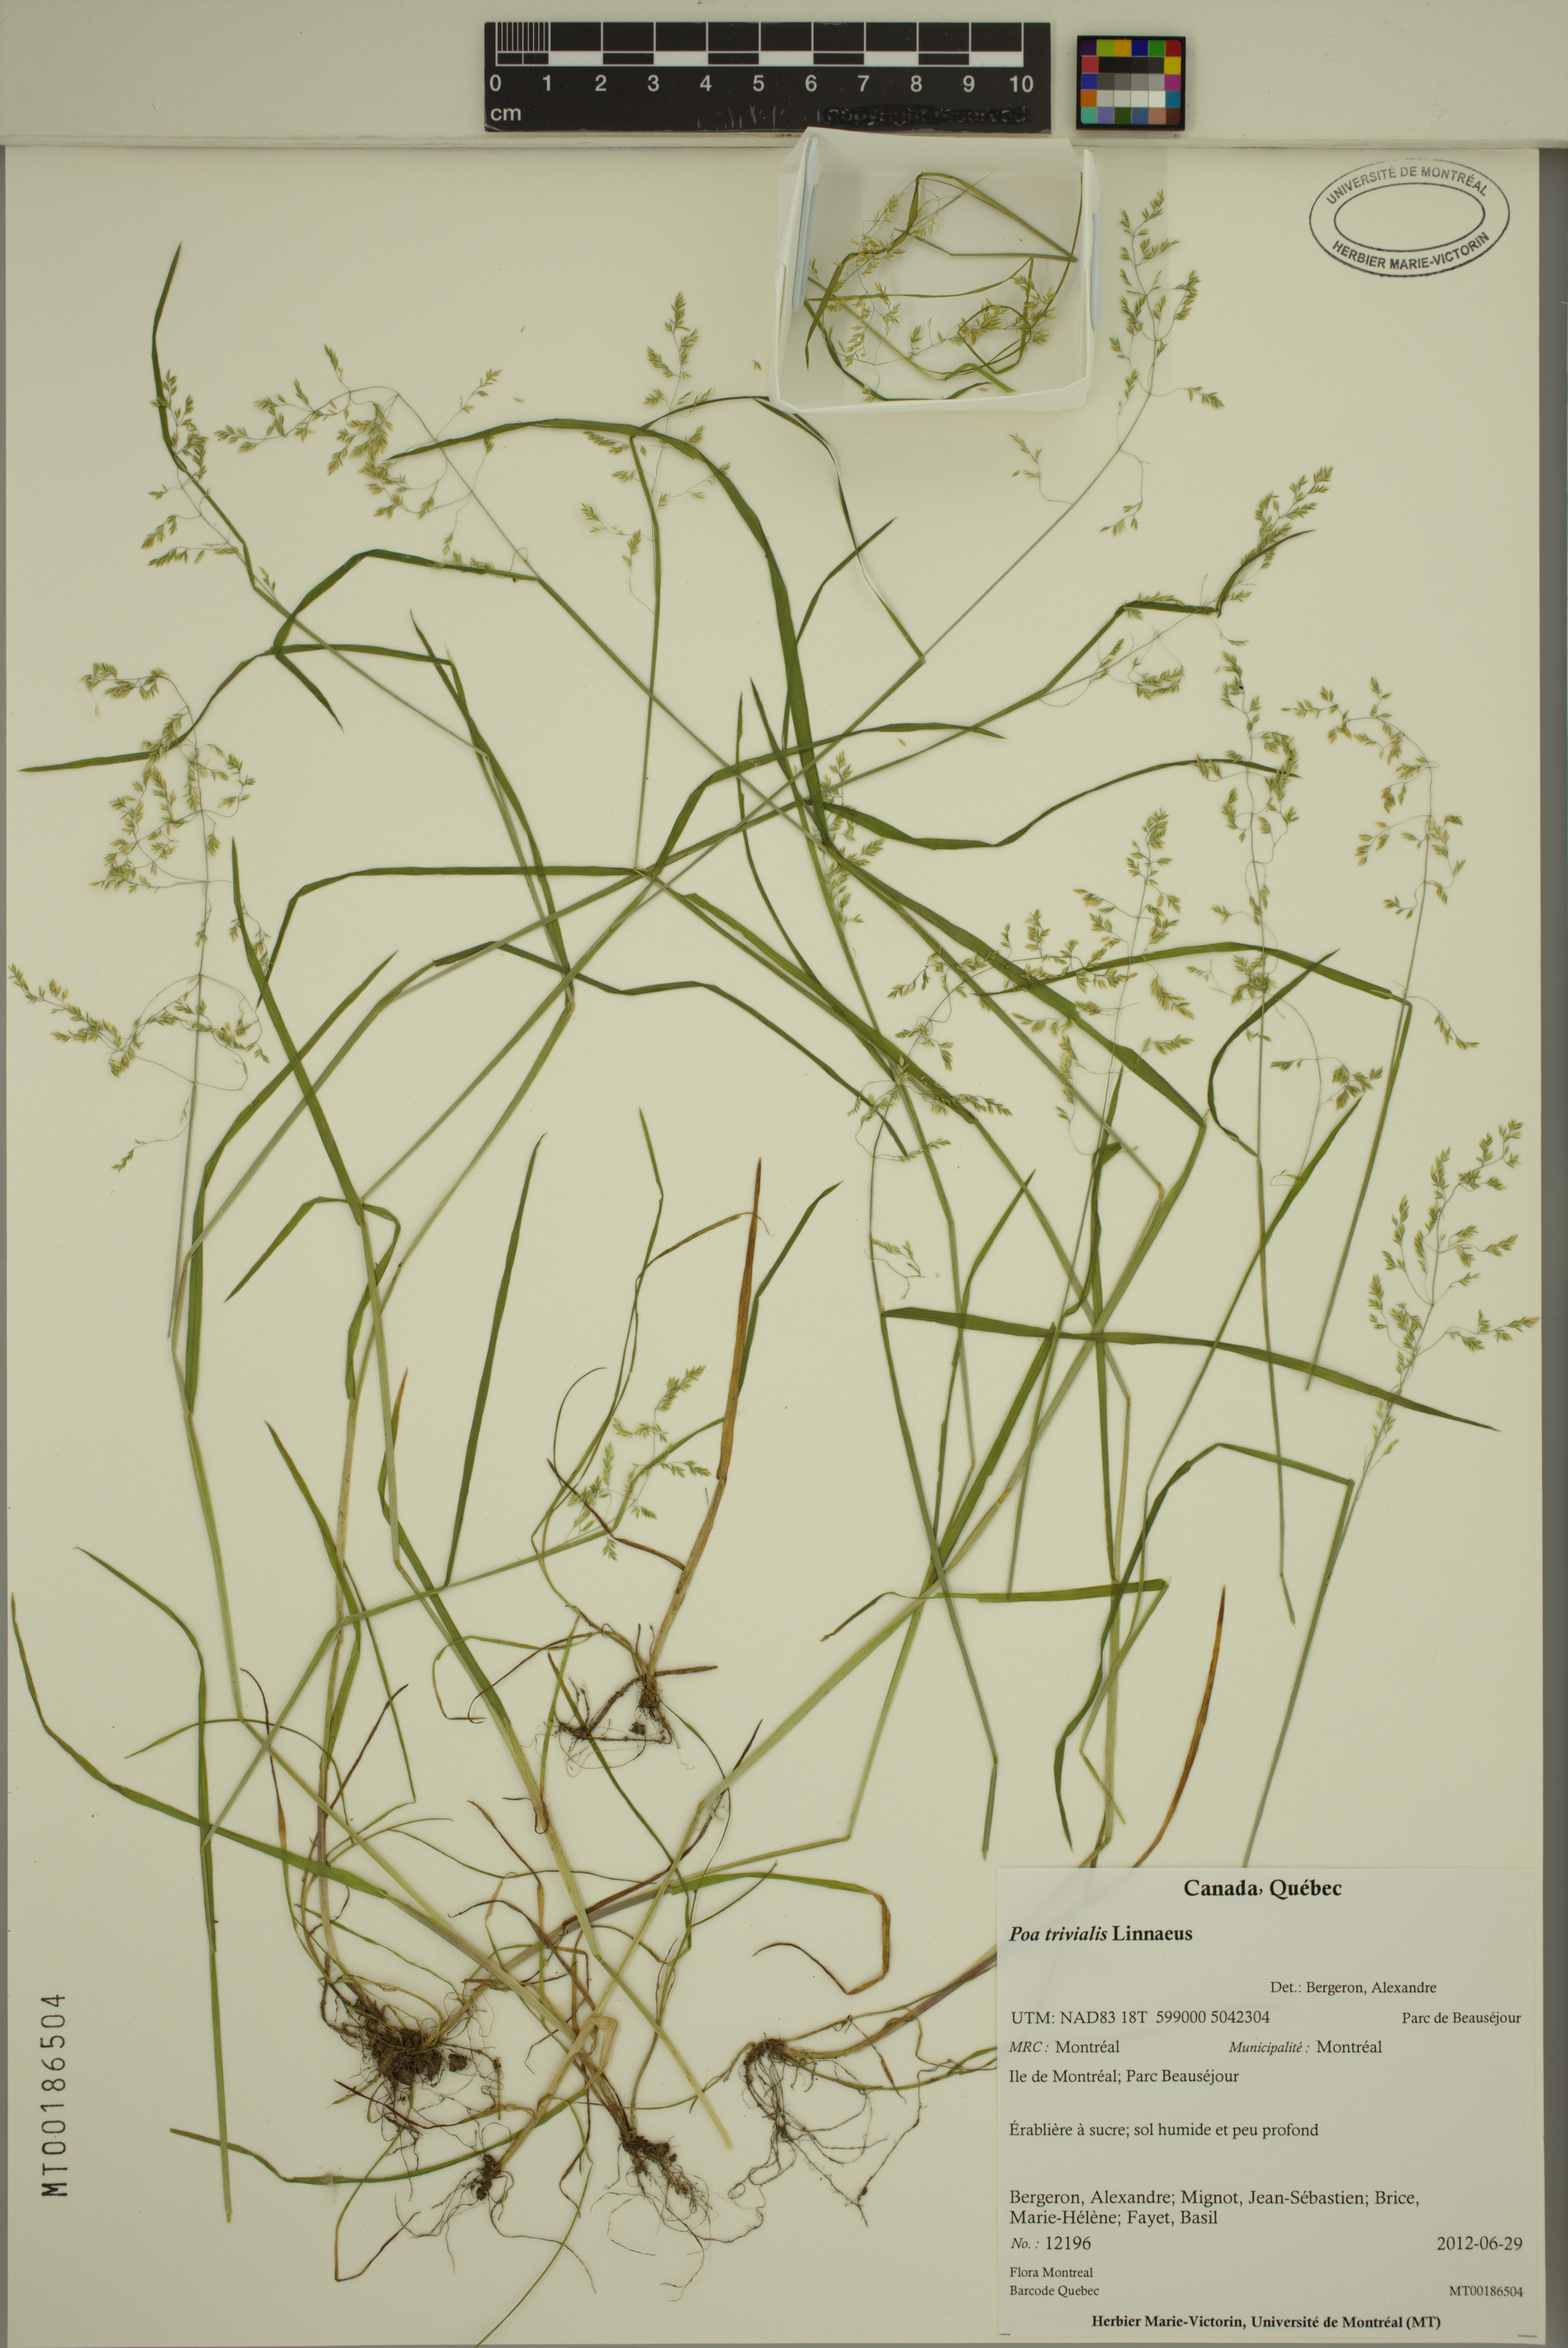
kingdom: Plantae
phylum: Tracheophyta
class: Liliopsida
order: Poales
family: Poaceae
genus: Poa
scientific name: Poa trivialis
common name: Rough bluegrass
